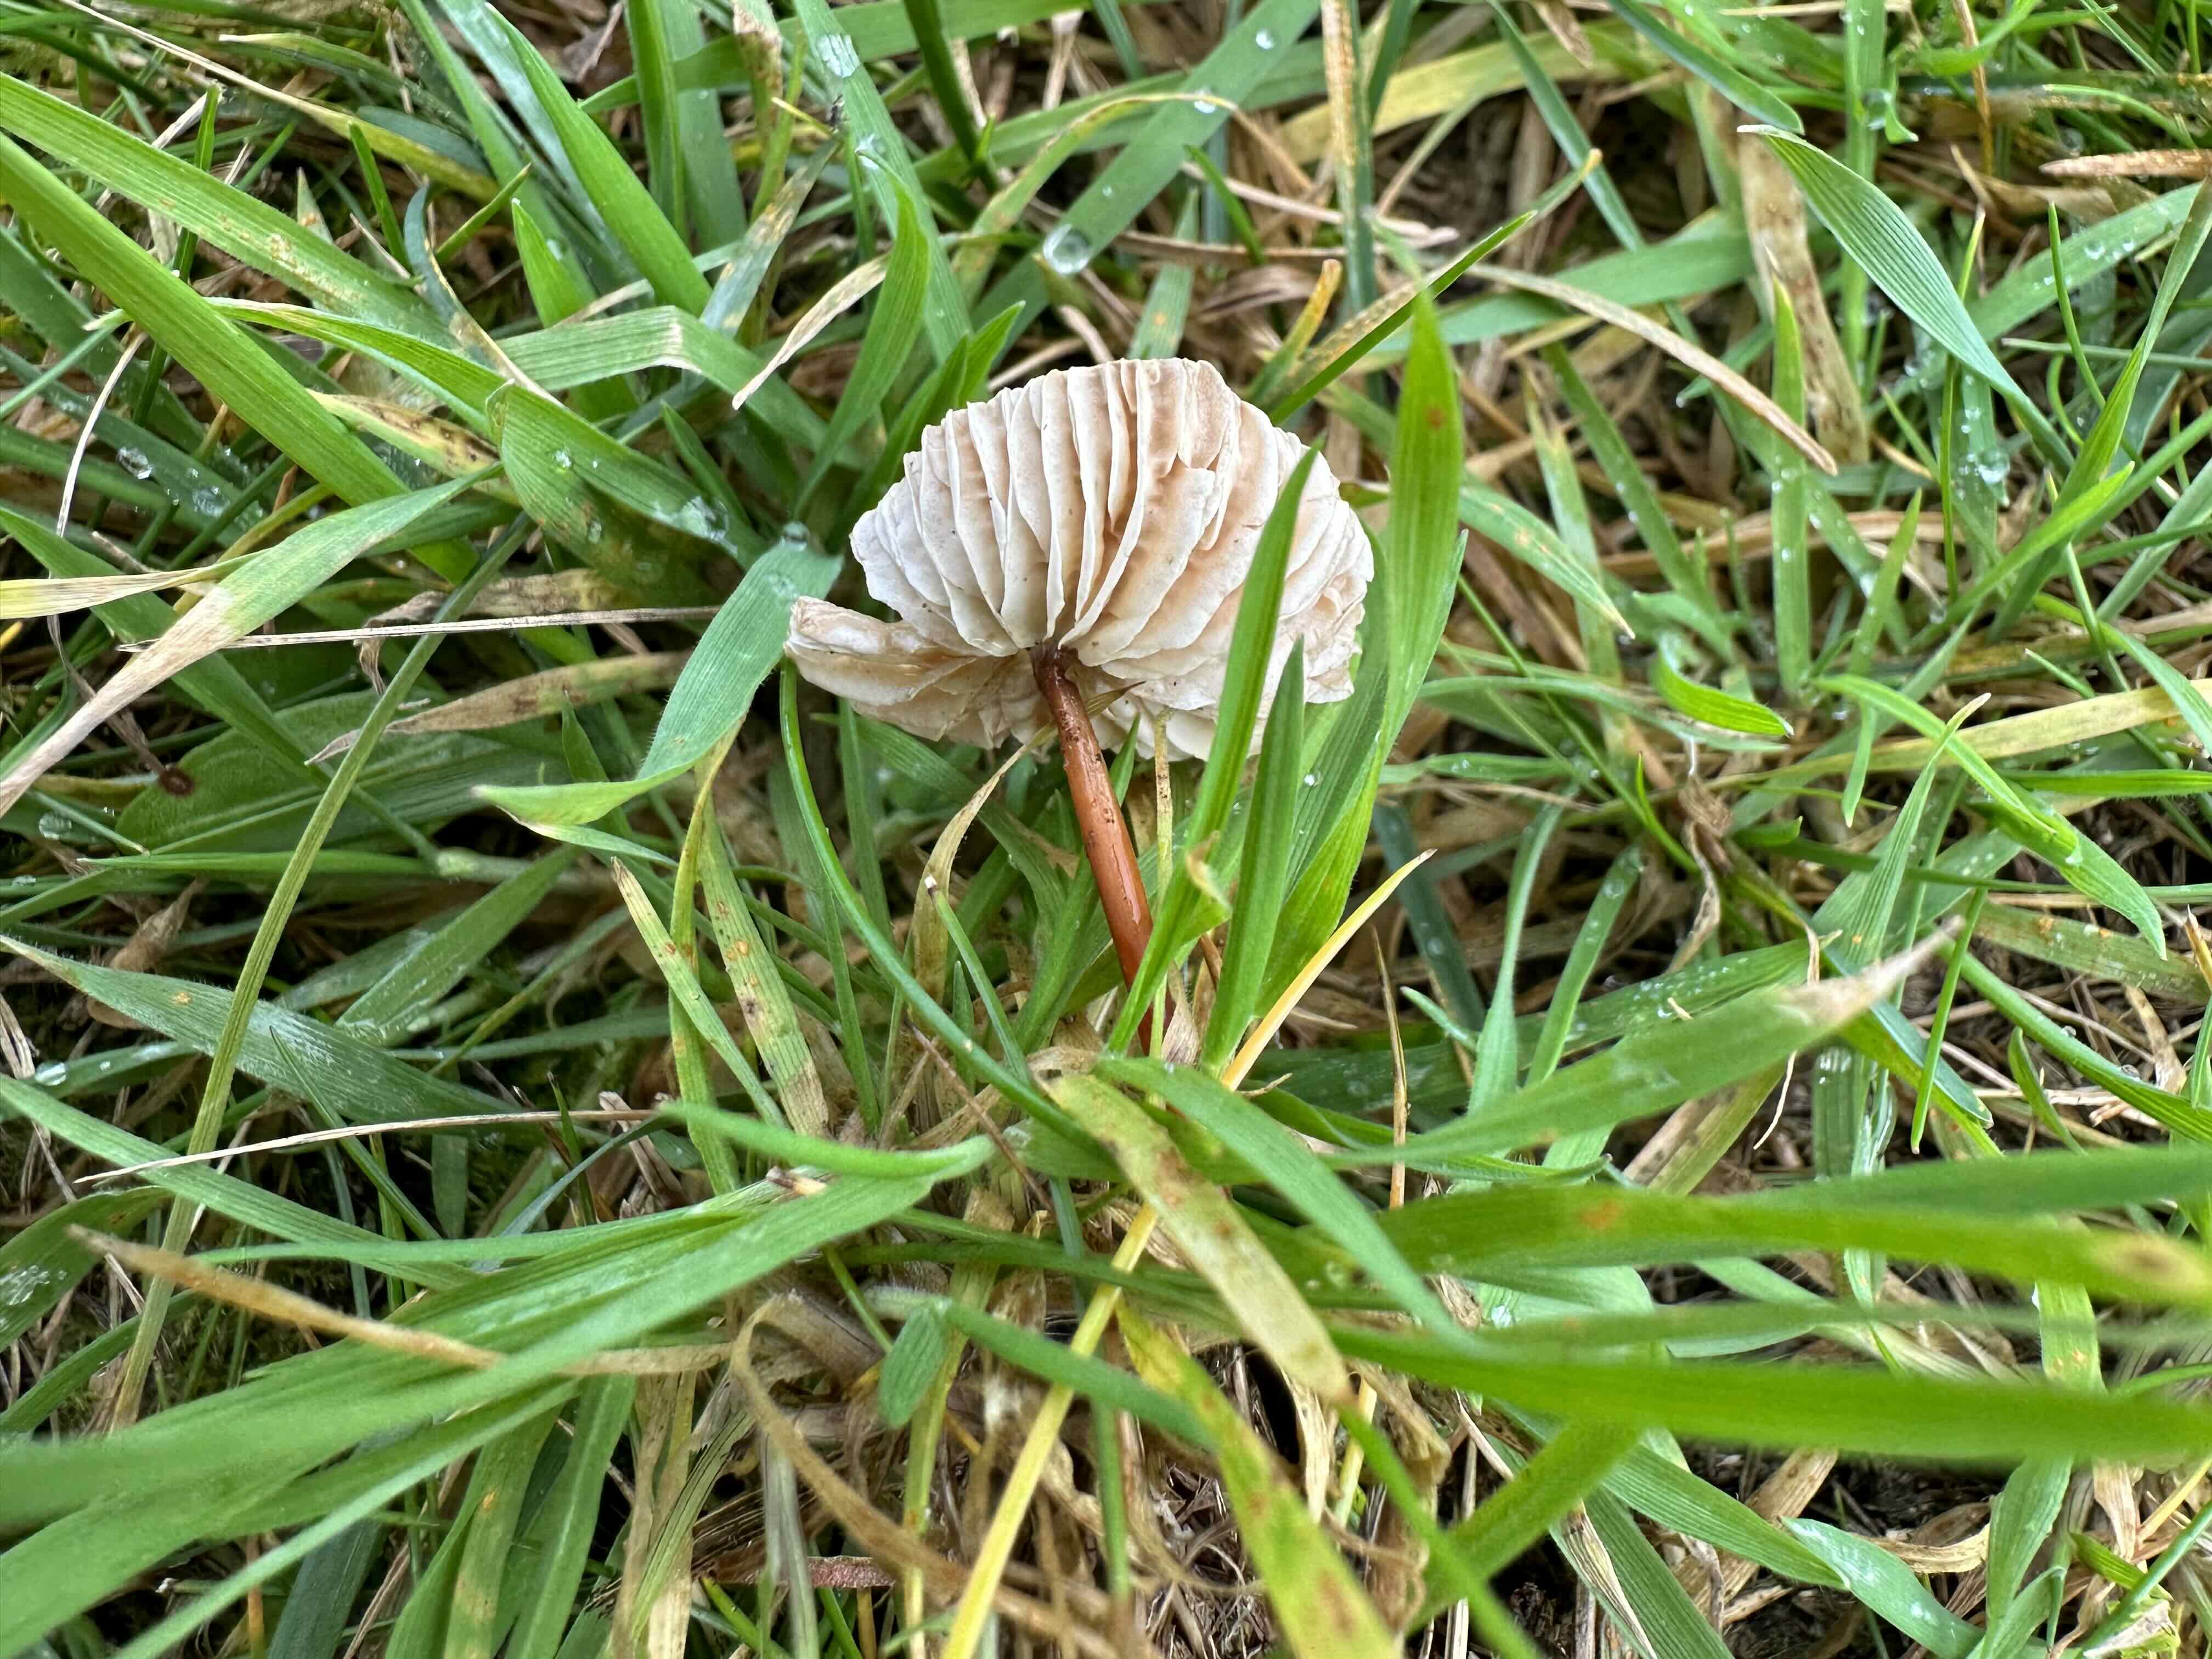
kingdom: Fungi
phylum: Basidiomycota
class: Agaricomycetes
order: Agaricales
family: Omphalotaceae
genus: Mycetinis
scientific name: Mycetinis scorodonius
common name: lille løghat
